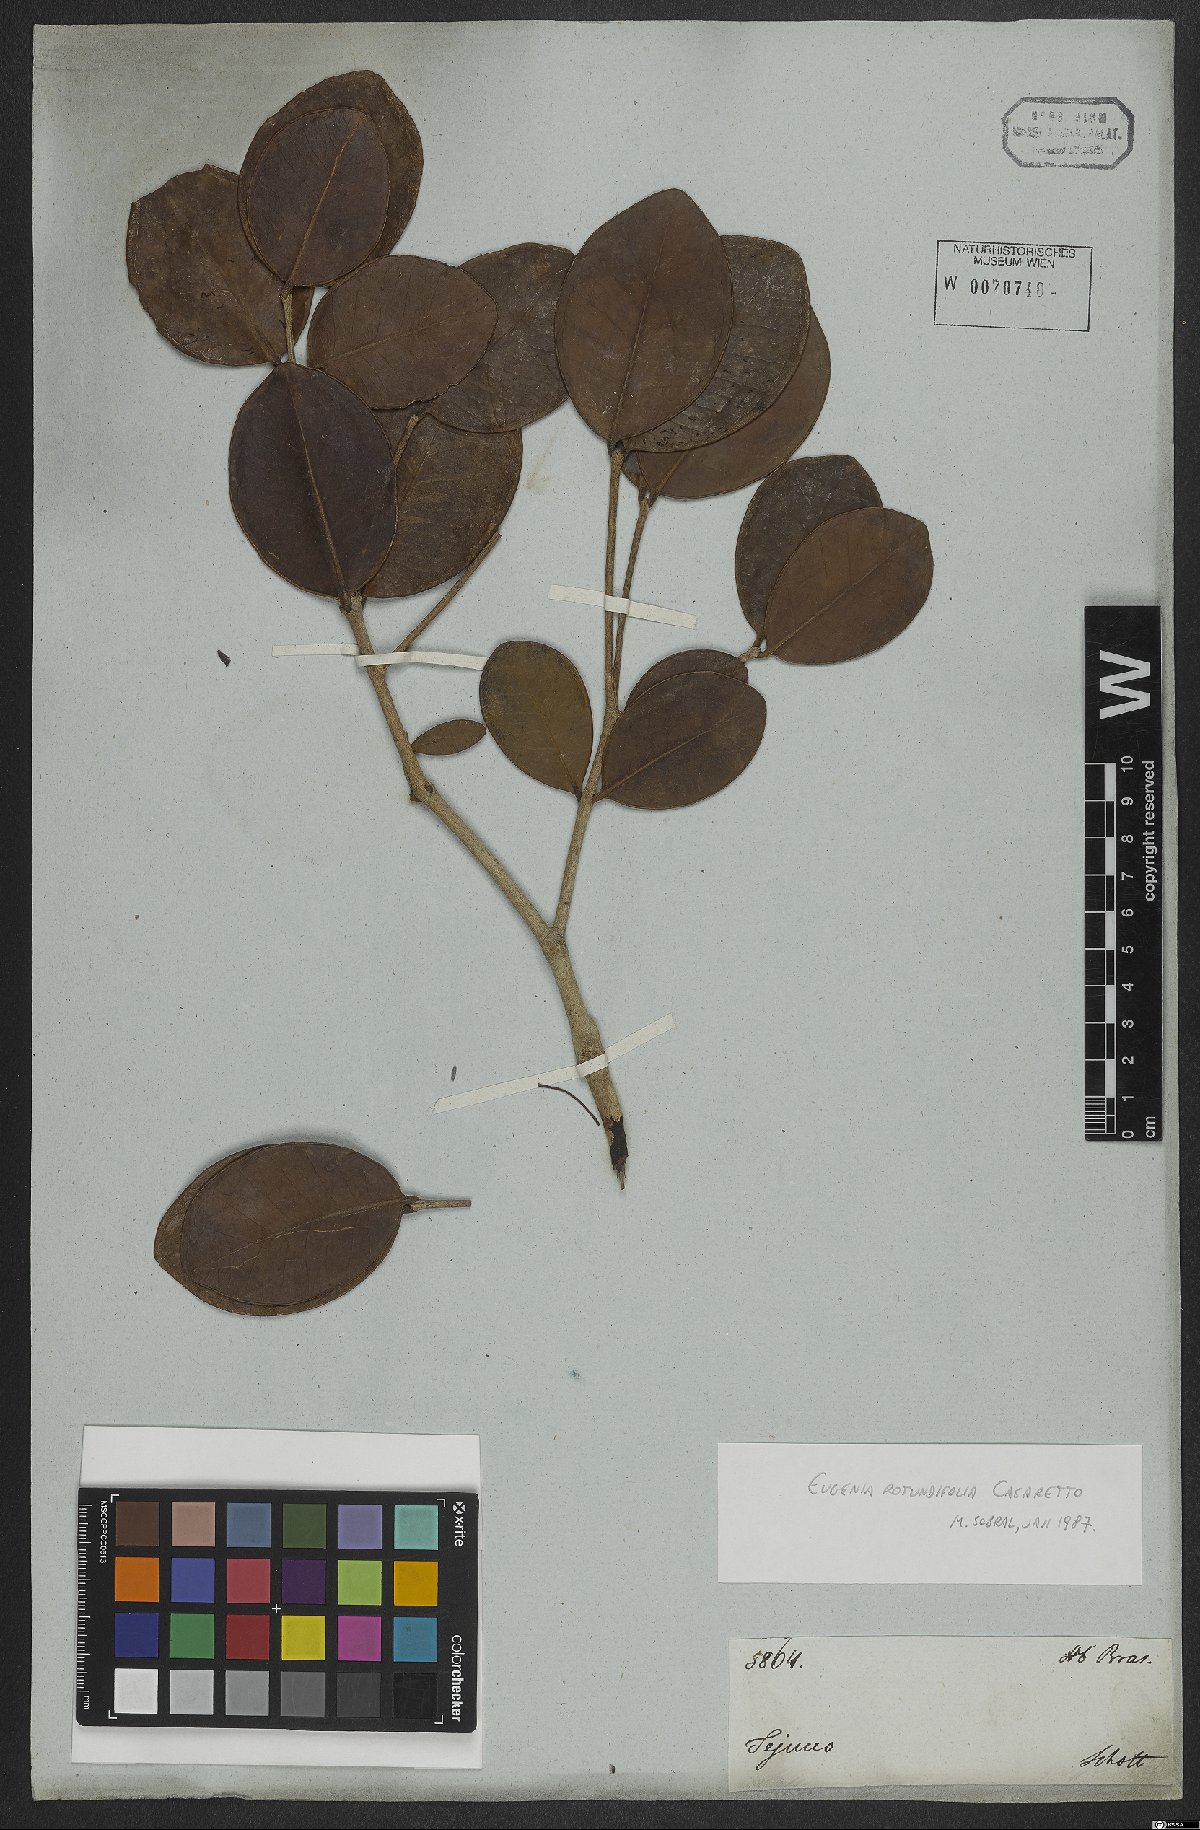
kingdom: Plantae
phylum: Tracheophyta
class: Magnoliopsida
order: Myrtales
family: Myrtaceae
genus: Eugenia
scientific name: Eugenia casarettoana
